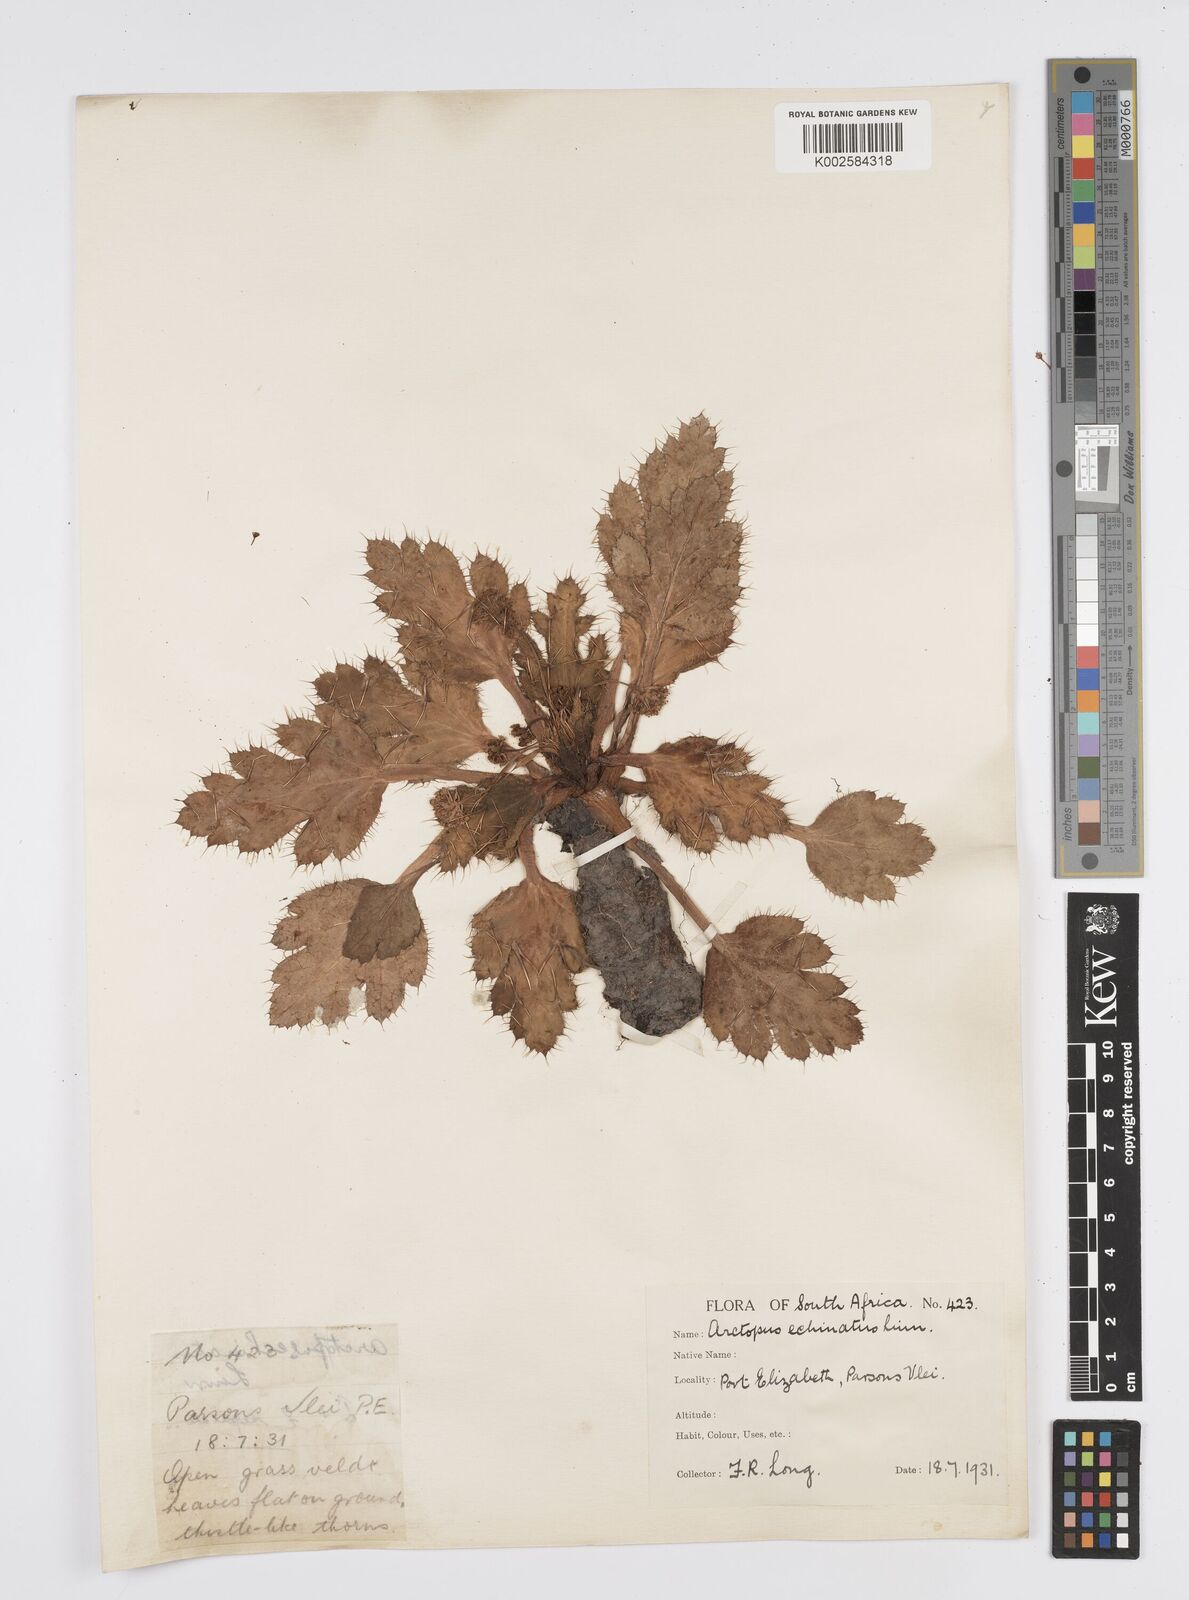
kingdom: Plantae
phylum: Tracheophyta
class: Magnoliopsida
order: Apiales
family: Apiaceae
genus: Arctopus
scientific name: Arctopus dregei
